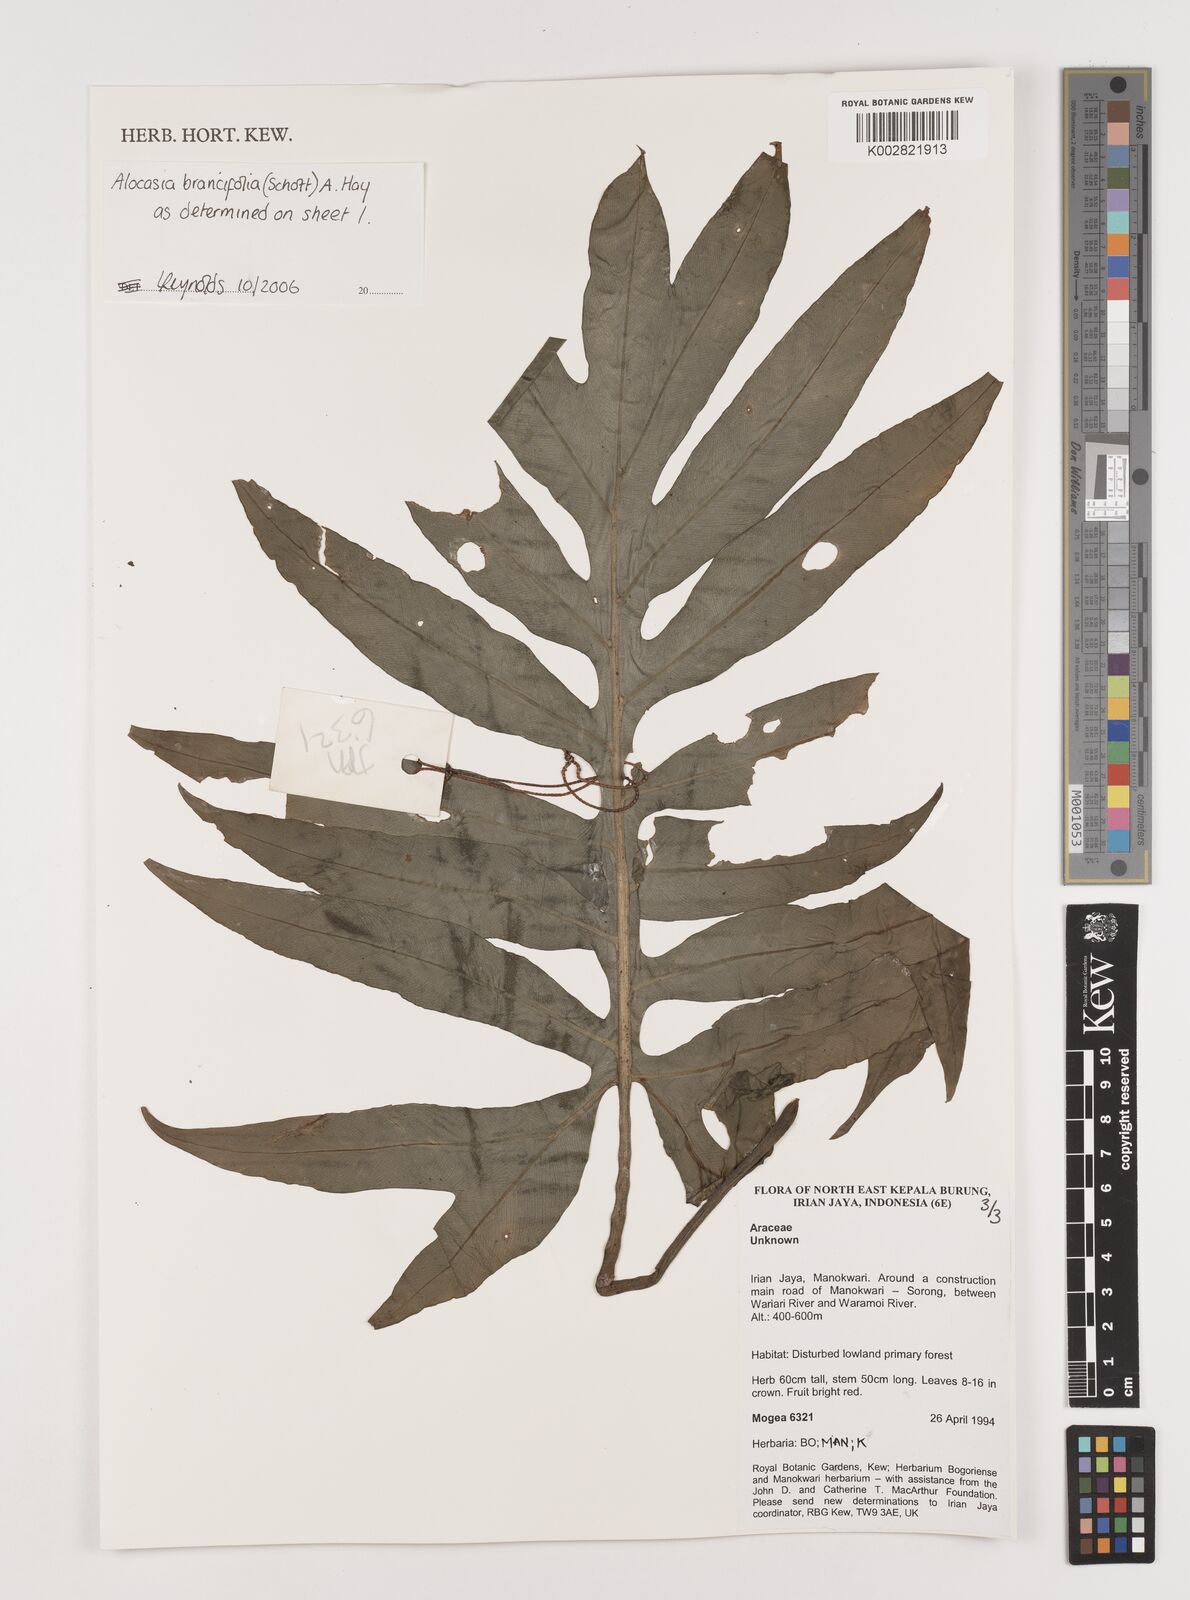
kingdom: Plantae
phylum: Tracheophyta
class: Liliopsida
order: Alismatales
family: Araceae
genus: Alocasia
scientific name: Alocasia brancifolia
